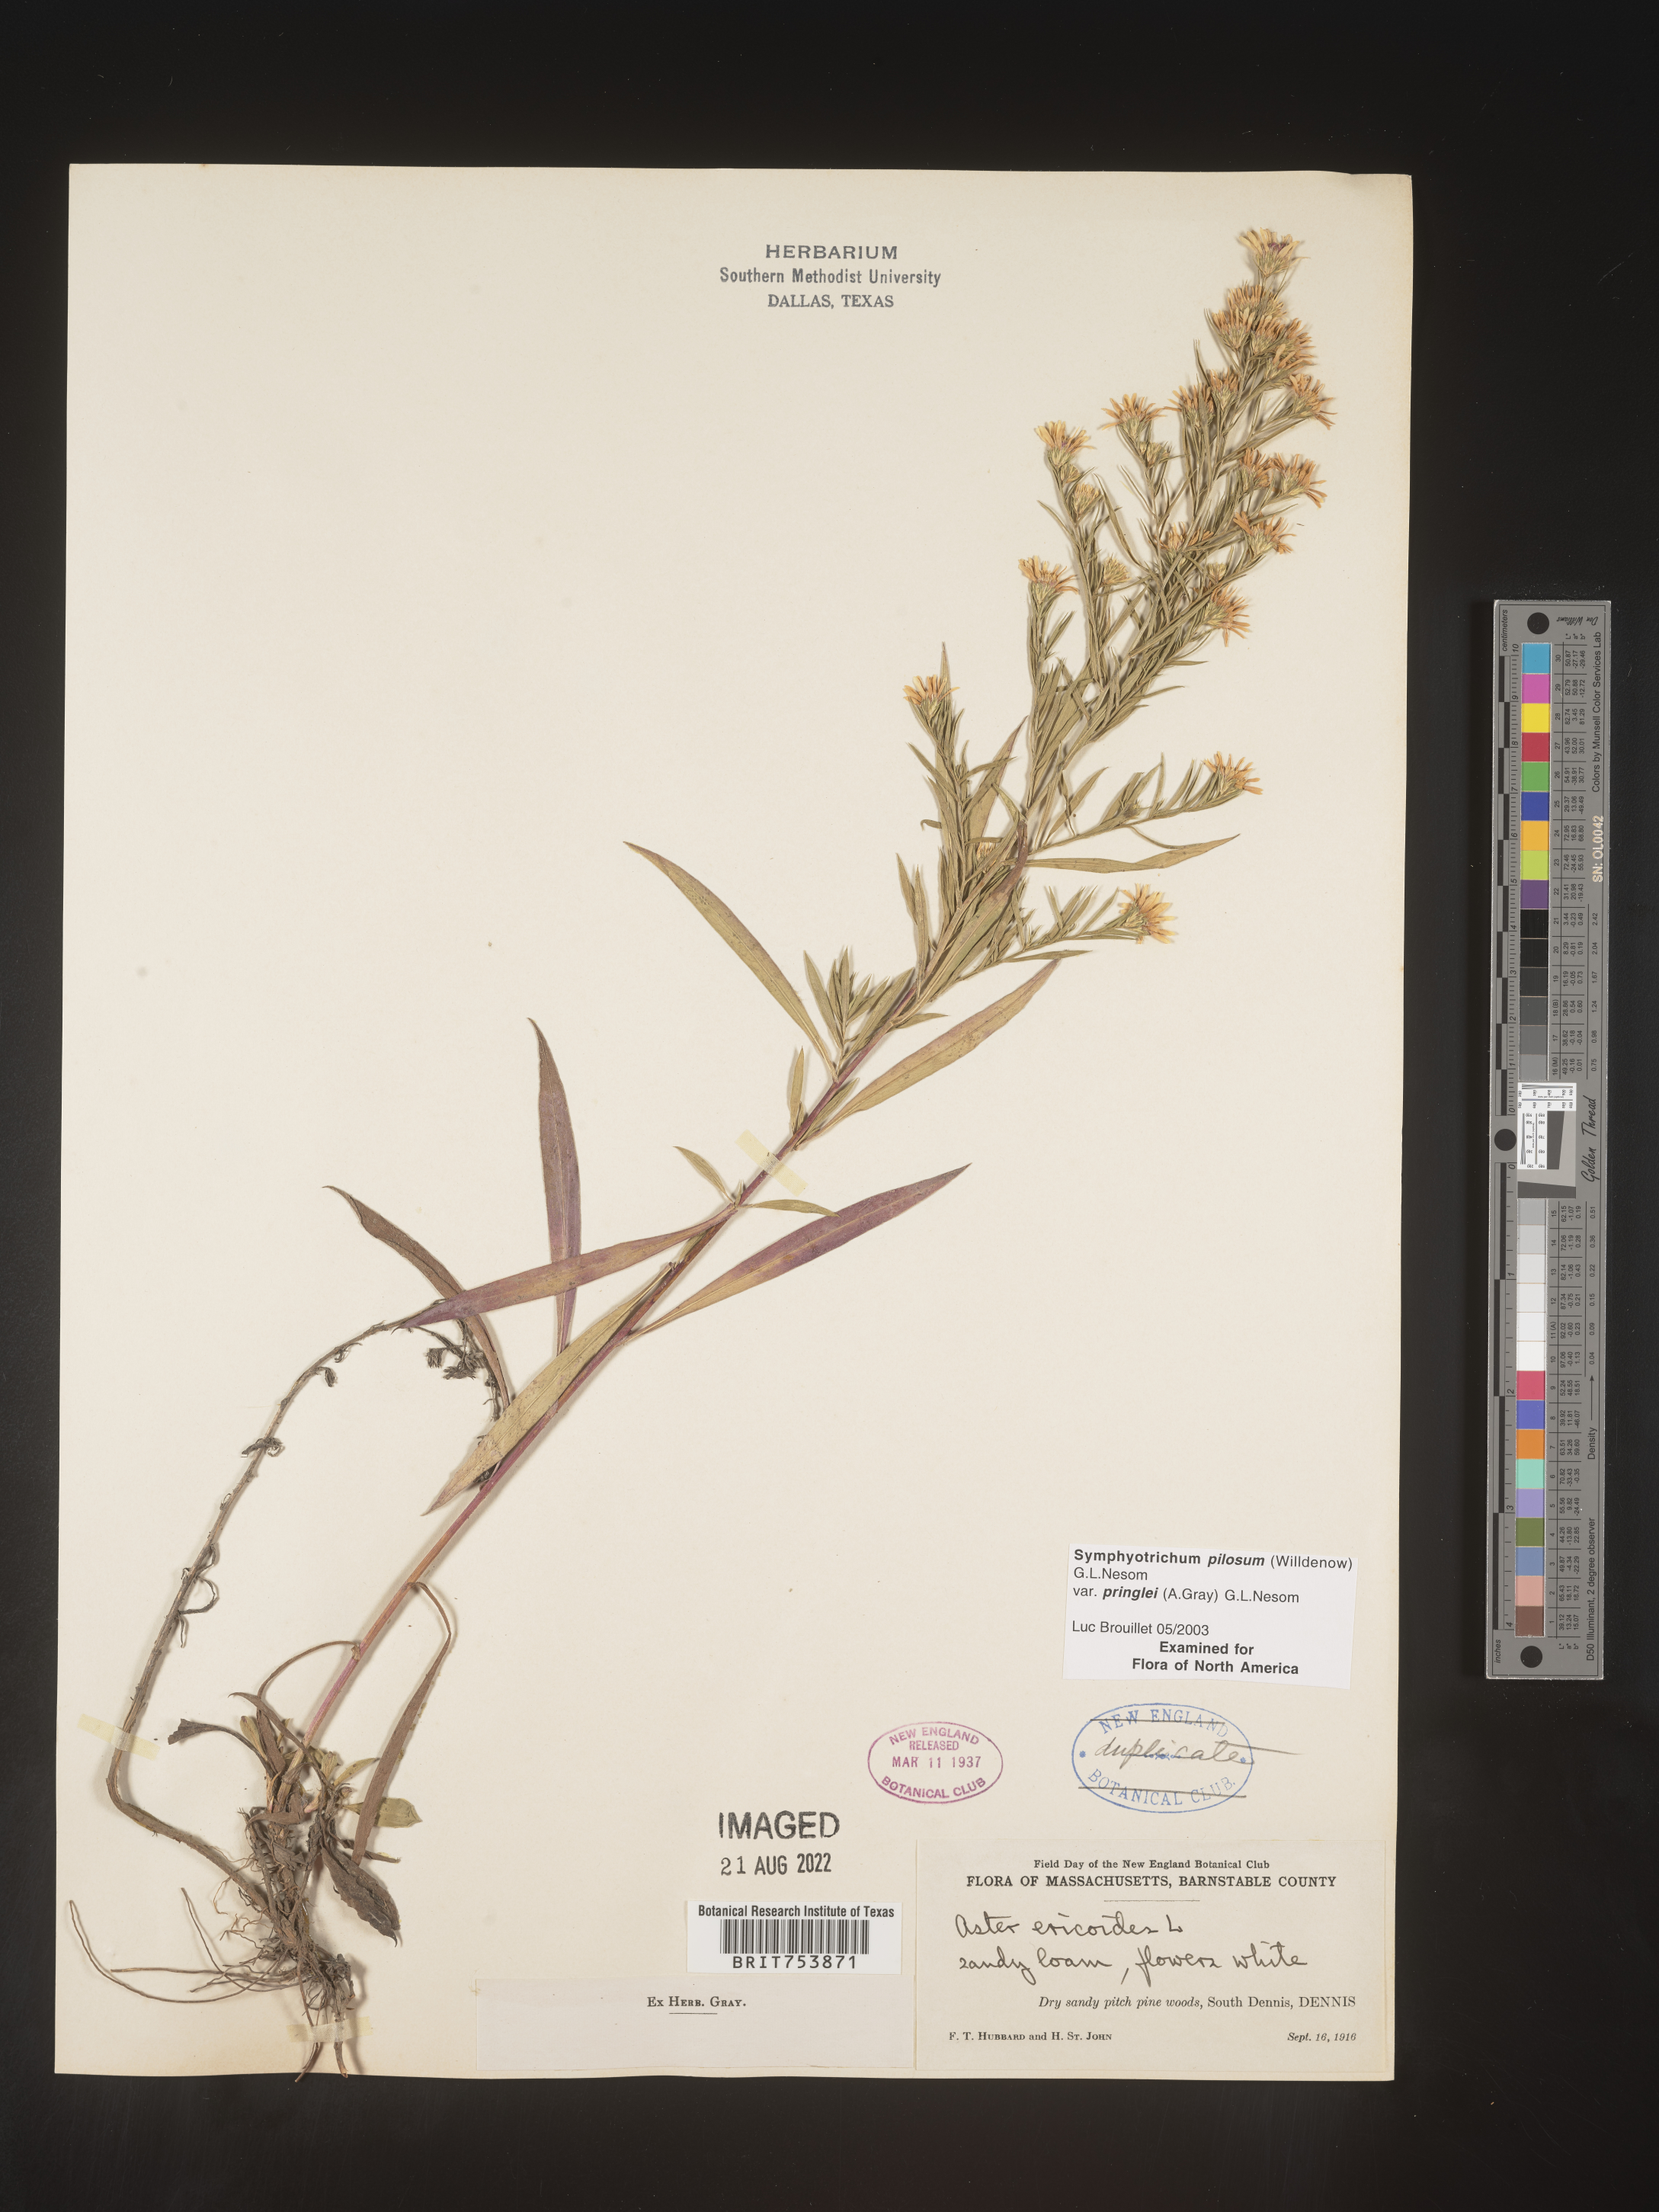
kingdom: Plantae
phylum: Tracheophyta
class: Magnoliopsida
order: Asterales
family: Asteraceae
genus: Symphyotrichum
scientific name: Symphyotrichum pilosum
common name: Awl aster
